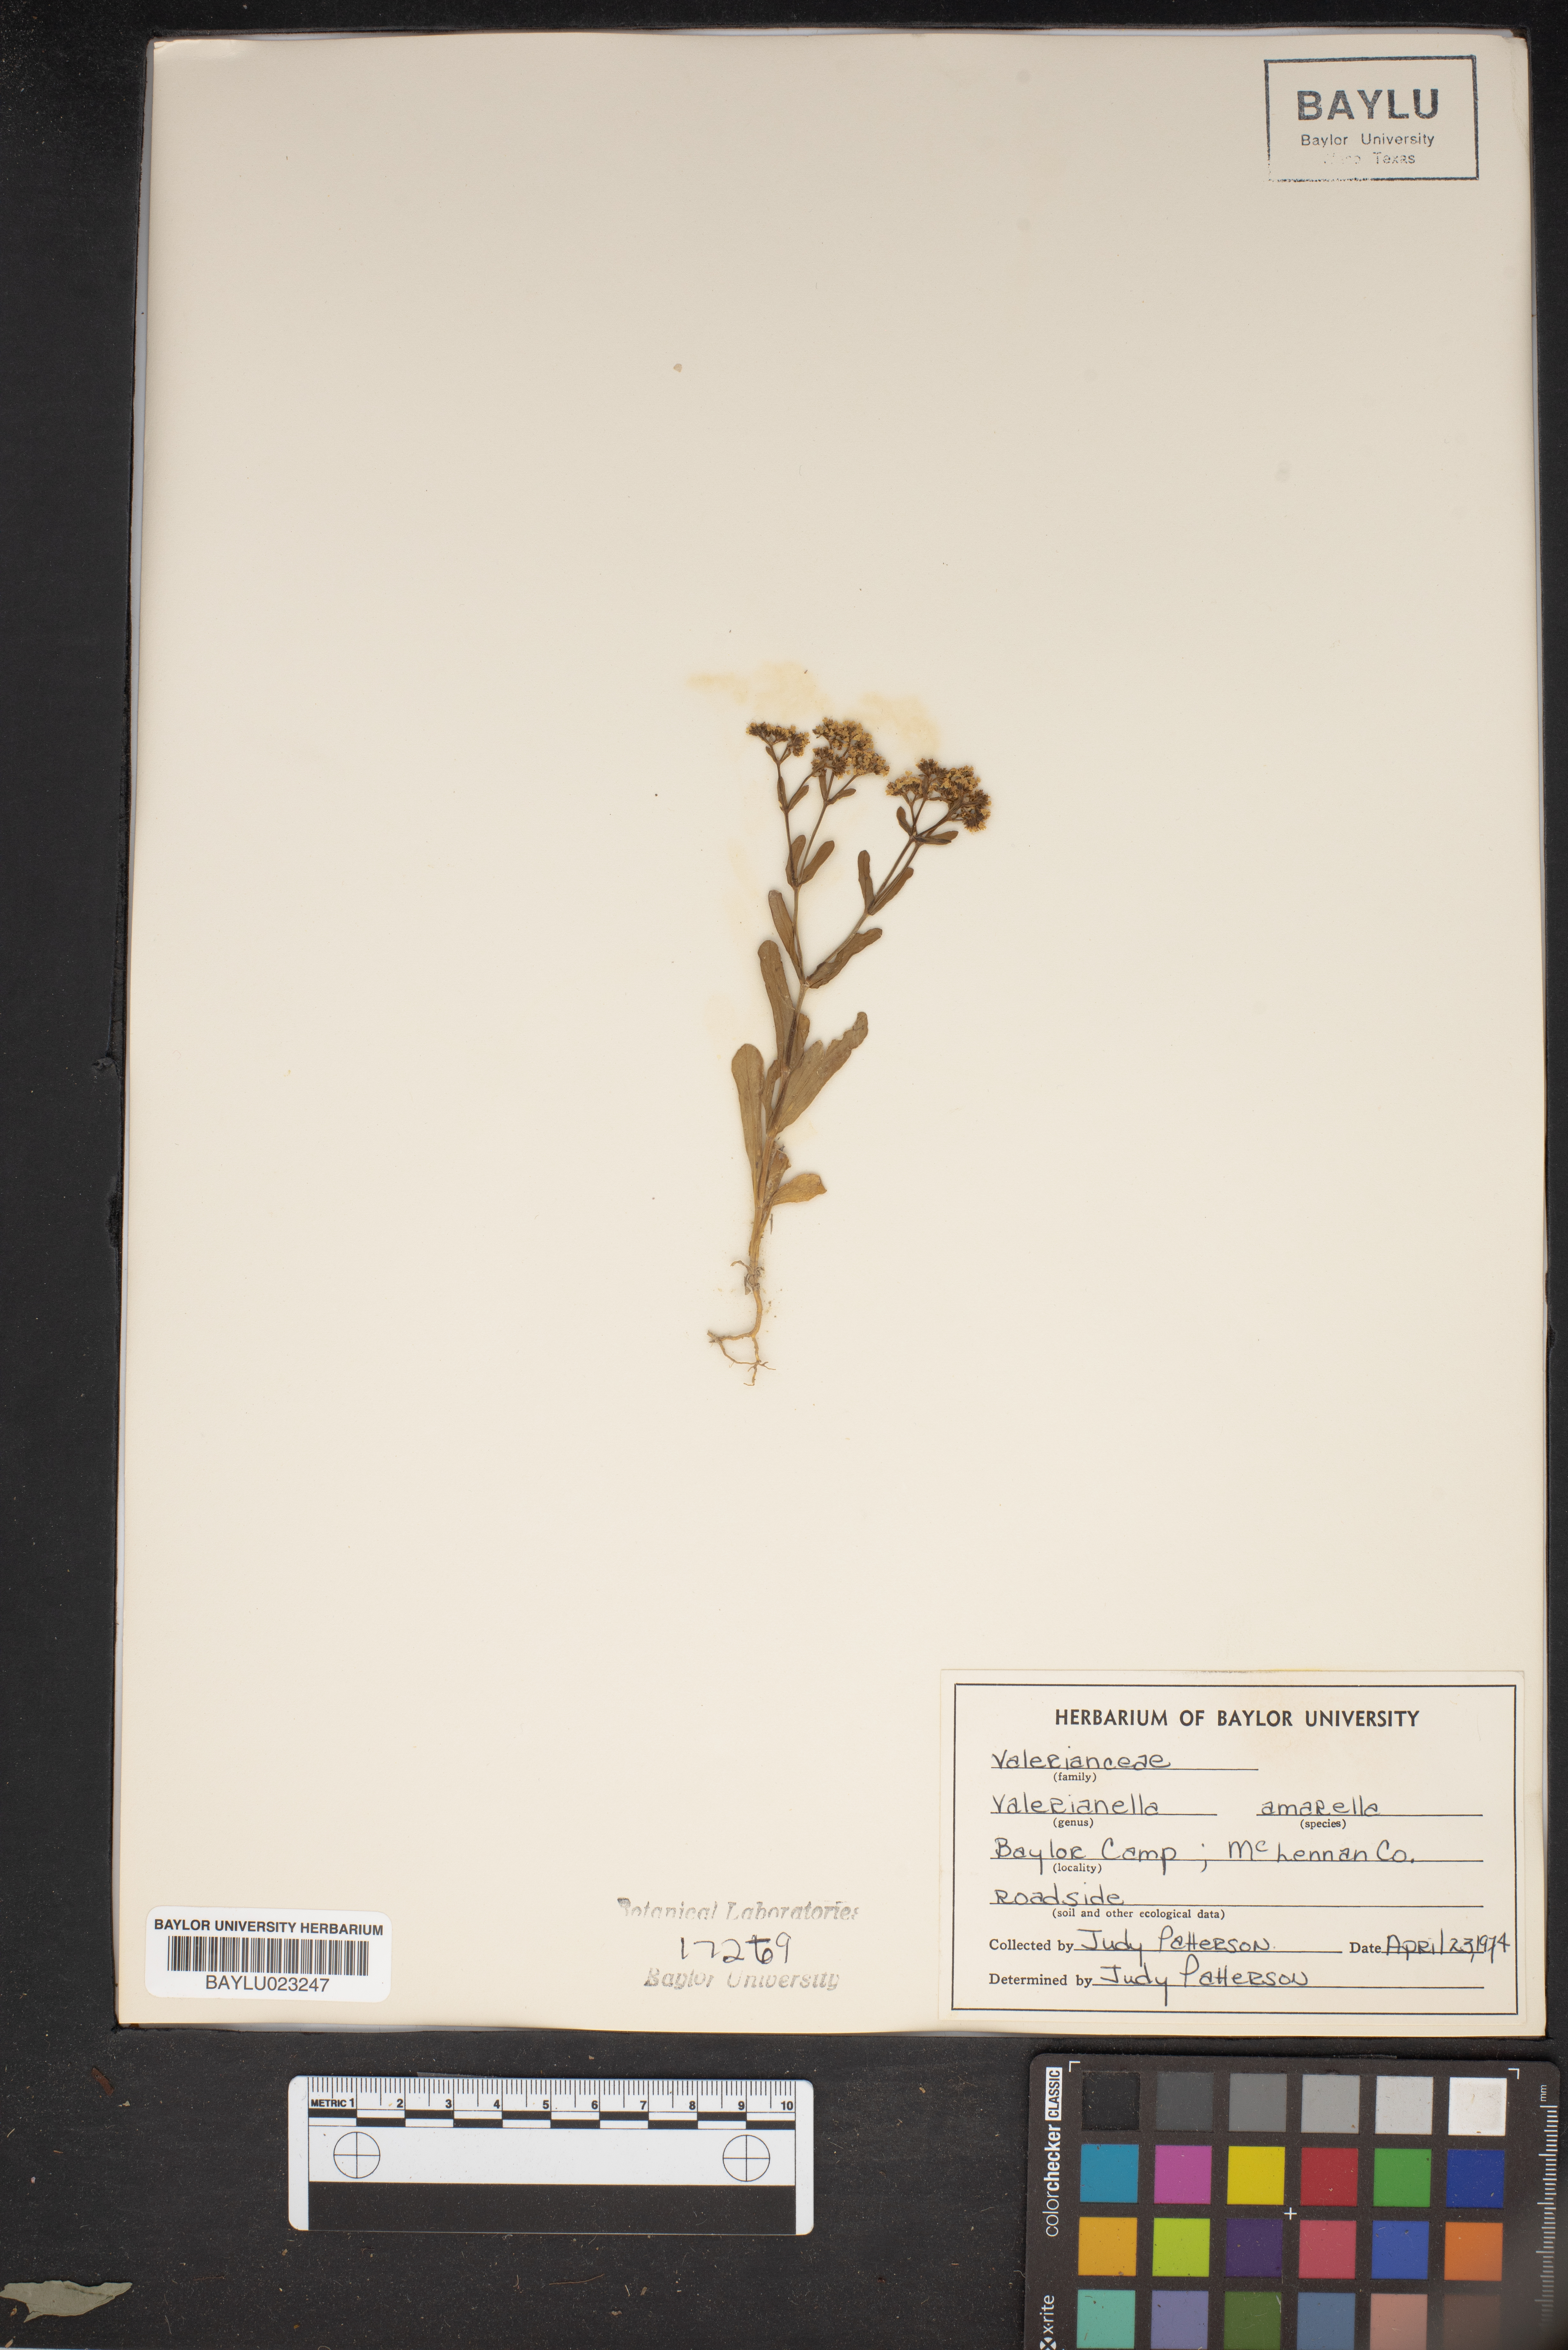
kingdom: Plantae
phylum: Tracheophyta
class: Magnoliopsida
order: Dipsacales
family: Caprifoliaceae
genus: Valerianella
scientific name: Valerianella amarella
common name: Hariy cornsalad
